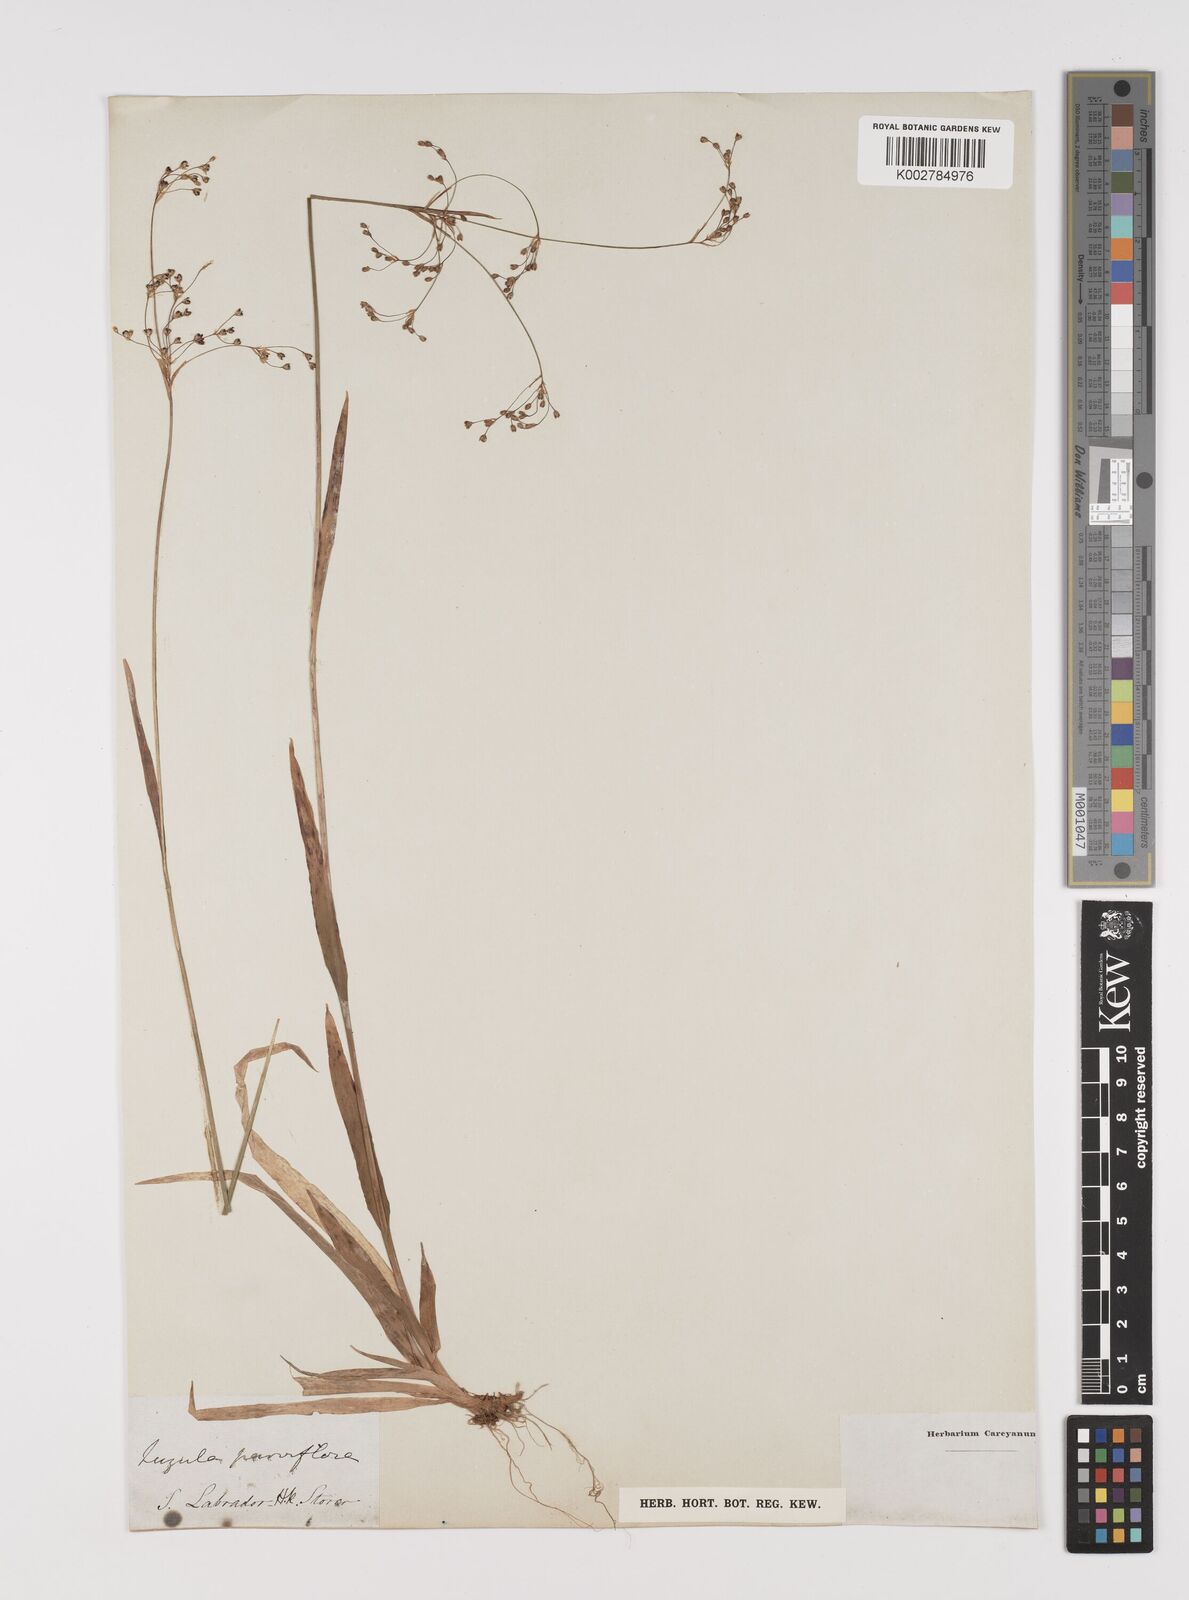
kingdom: Plantae
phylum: Tracheophyta
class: Liliopsida
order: Poales
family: Juncaceae
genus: Luzula
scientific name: Luzula parviflora
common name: Millet woodrush
